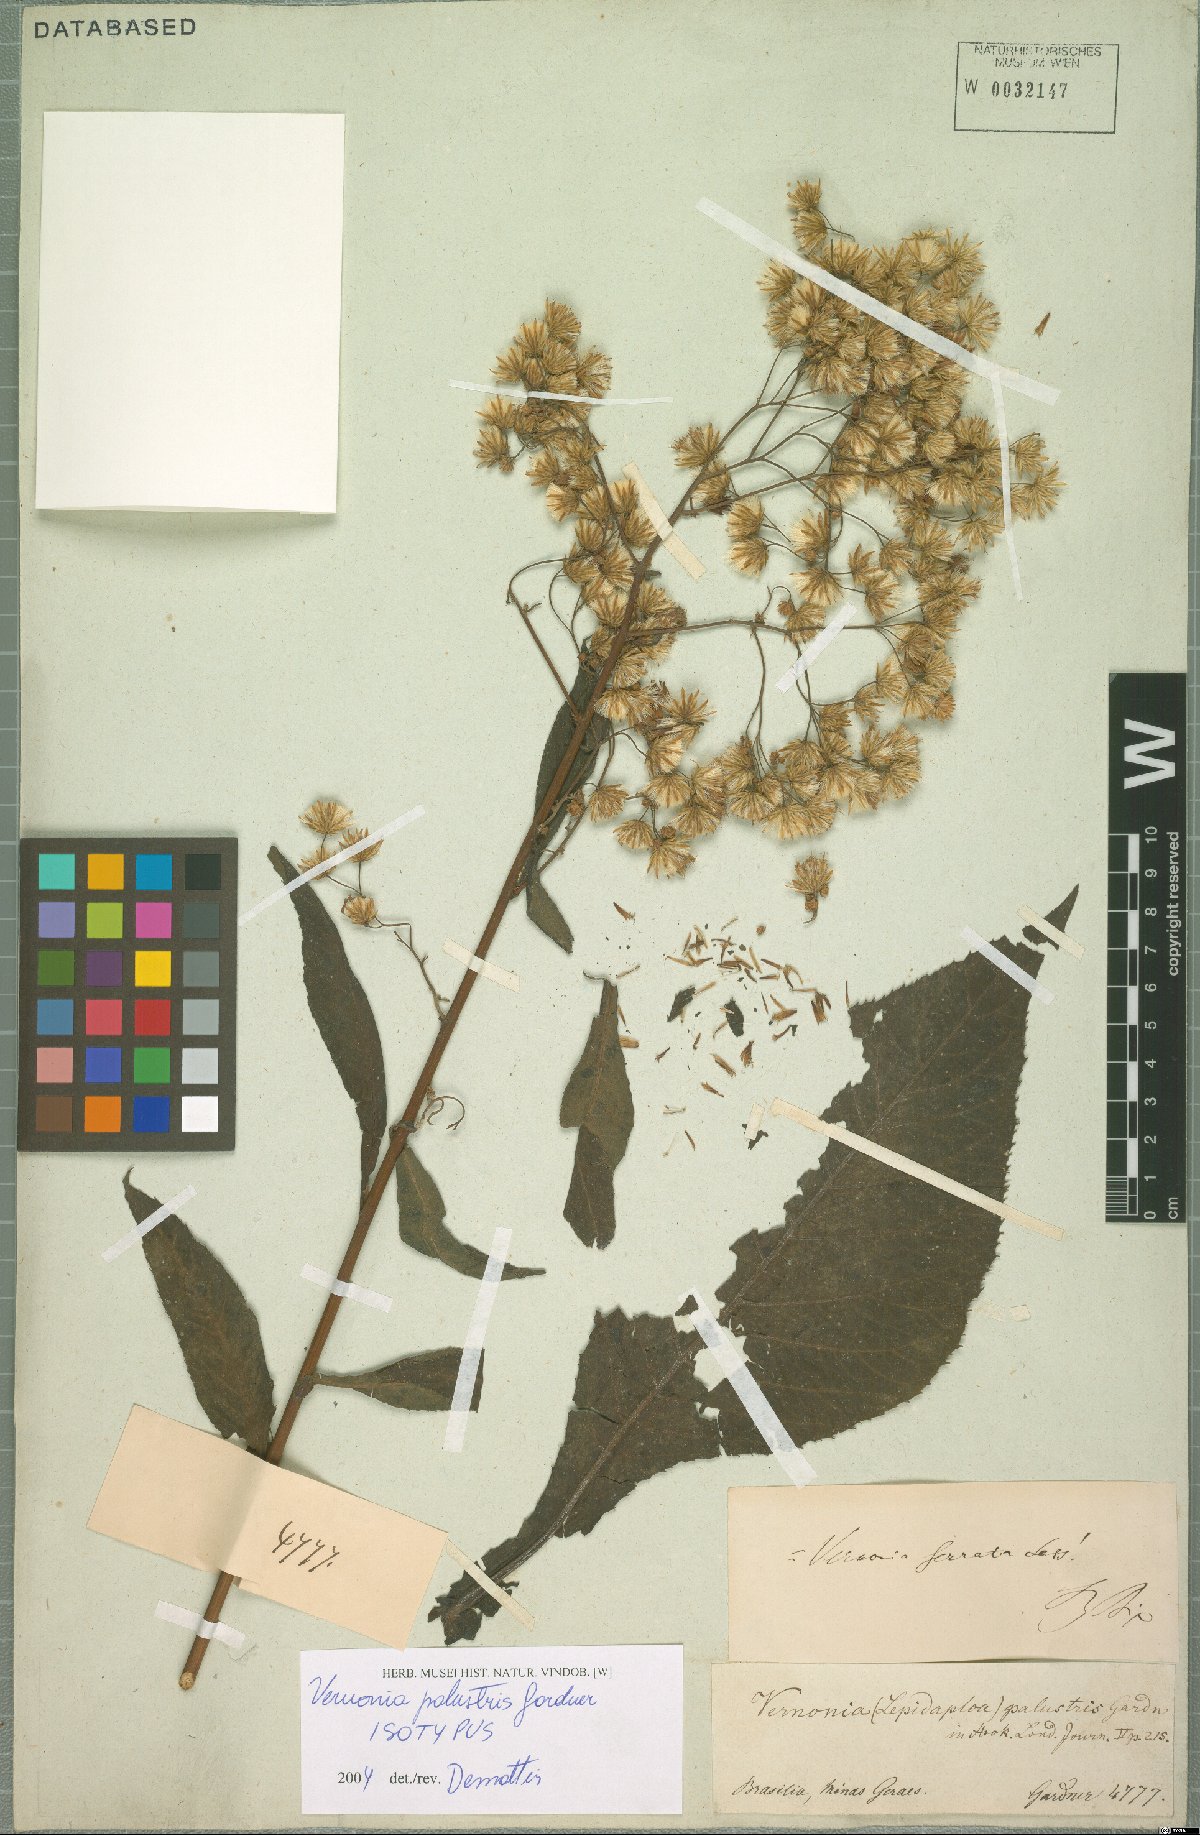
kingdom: Plantae
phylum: Tracheophyta
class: Magnoliopsida
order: Asterales
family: Asteraceae
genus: Dasyanthina
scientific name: Dasyanthina palustris
